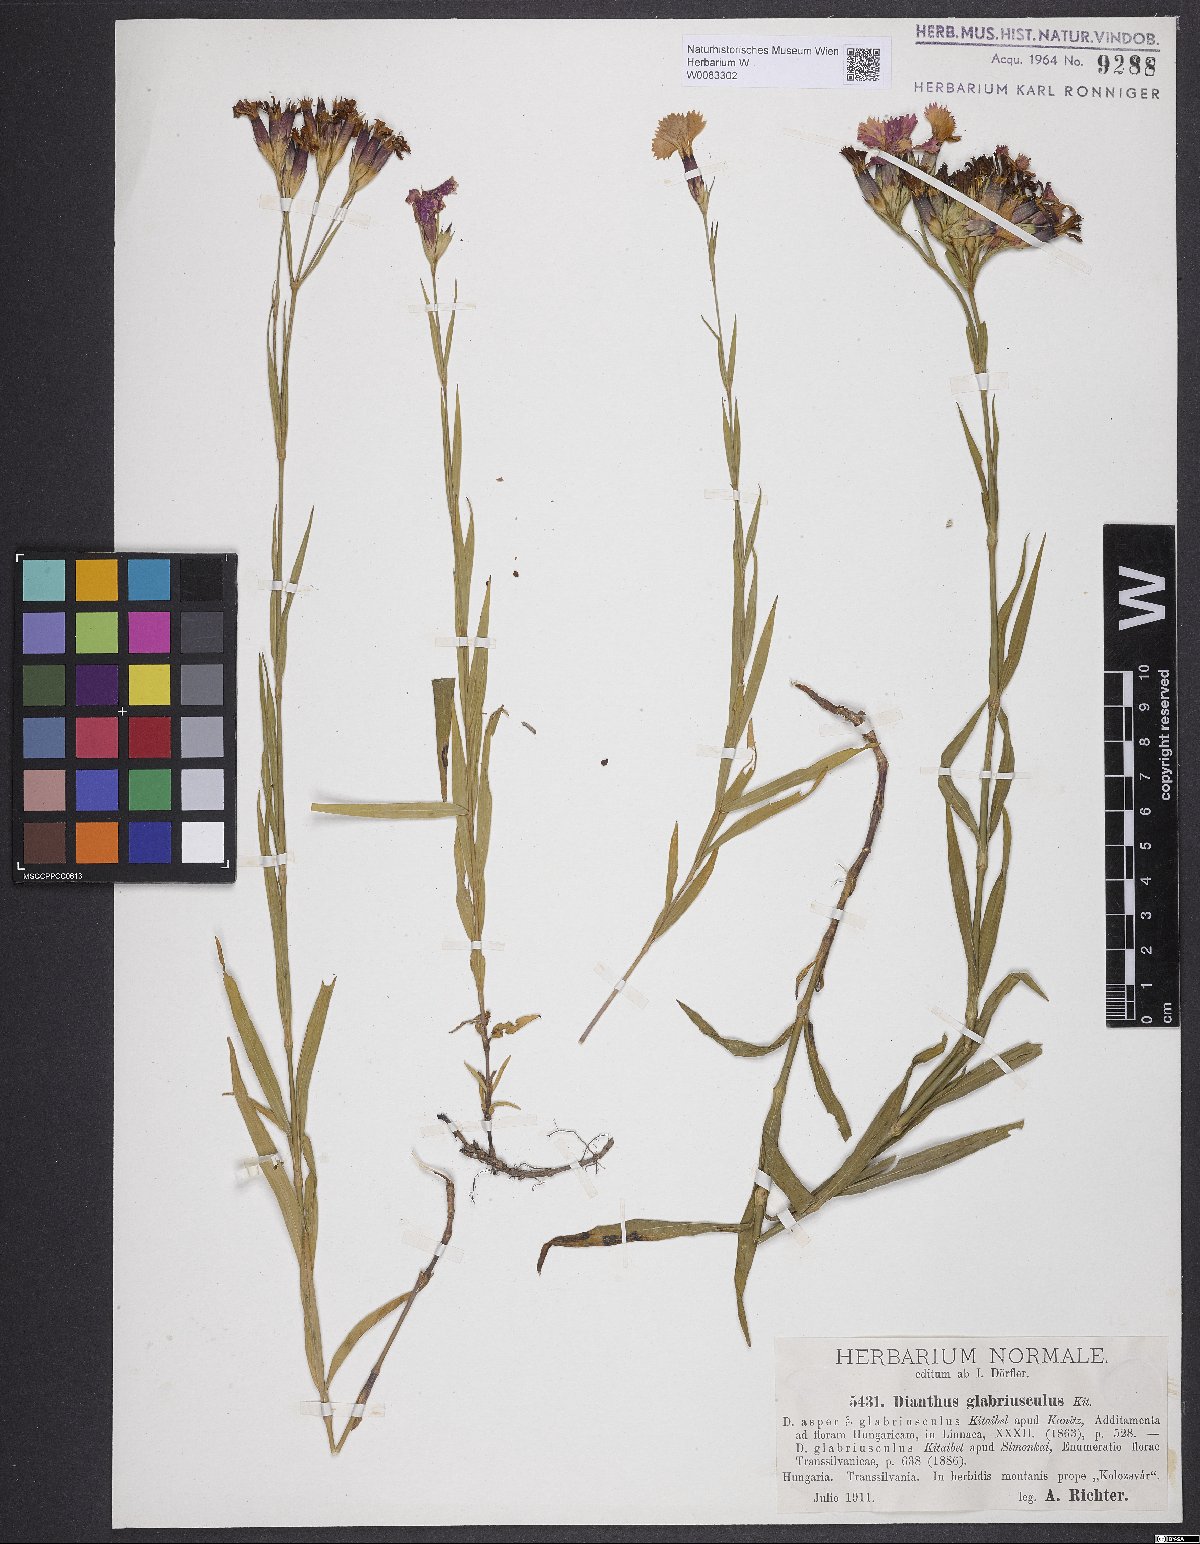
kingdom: Plantae
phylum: Tracheophyta
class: Magnoliopsida
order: Caryophyllales
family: Caryophyllaceae
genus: Dianthus
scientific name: Dianthus collinus
